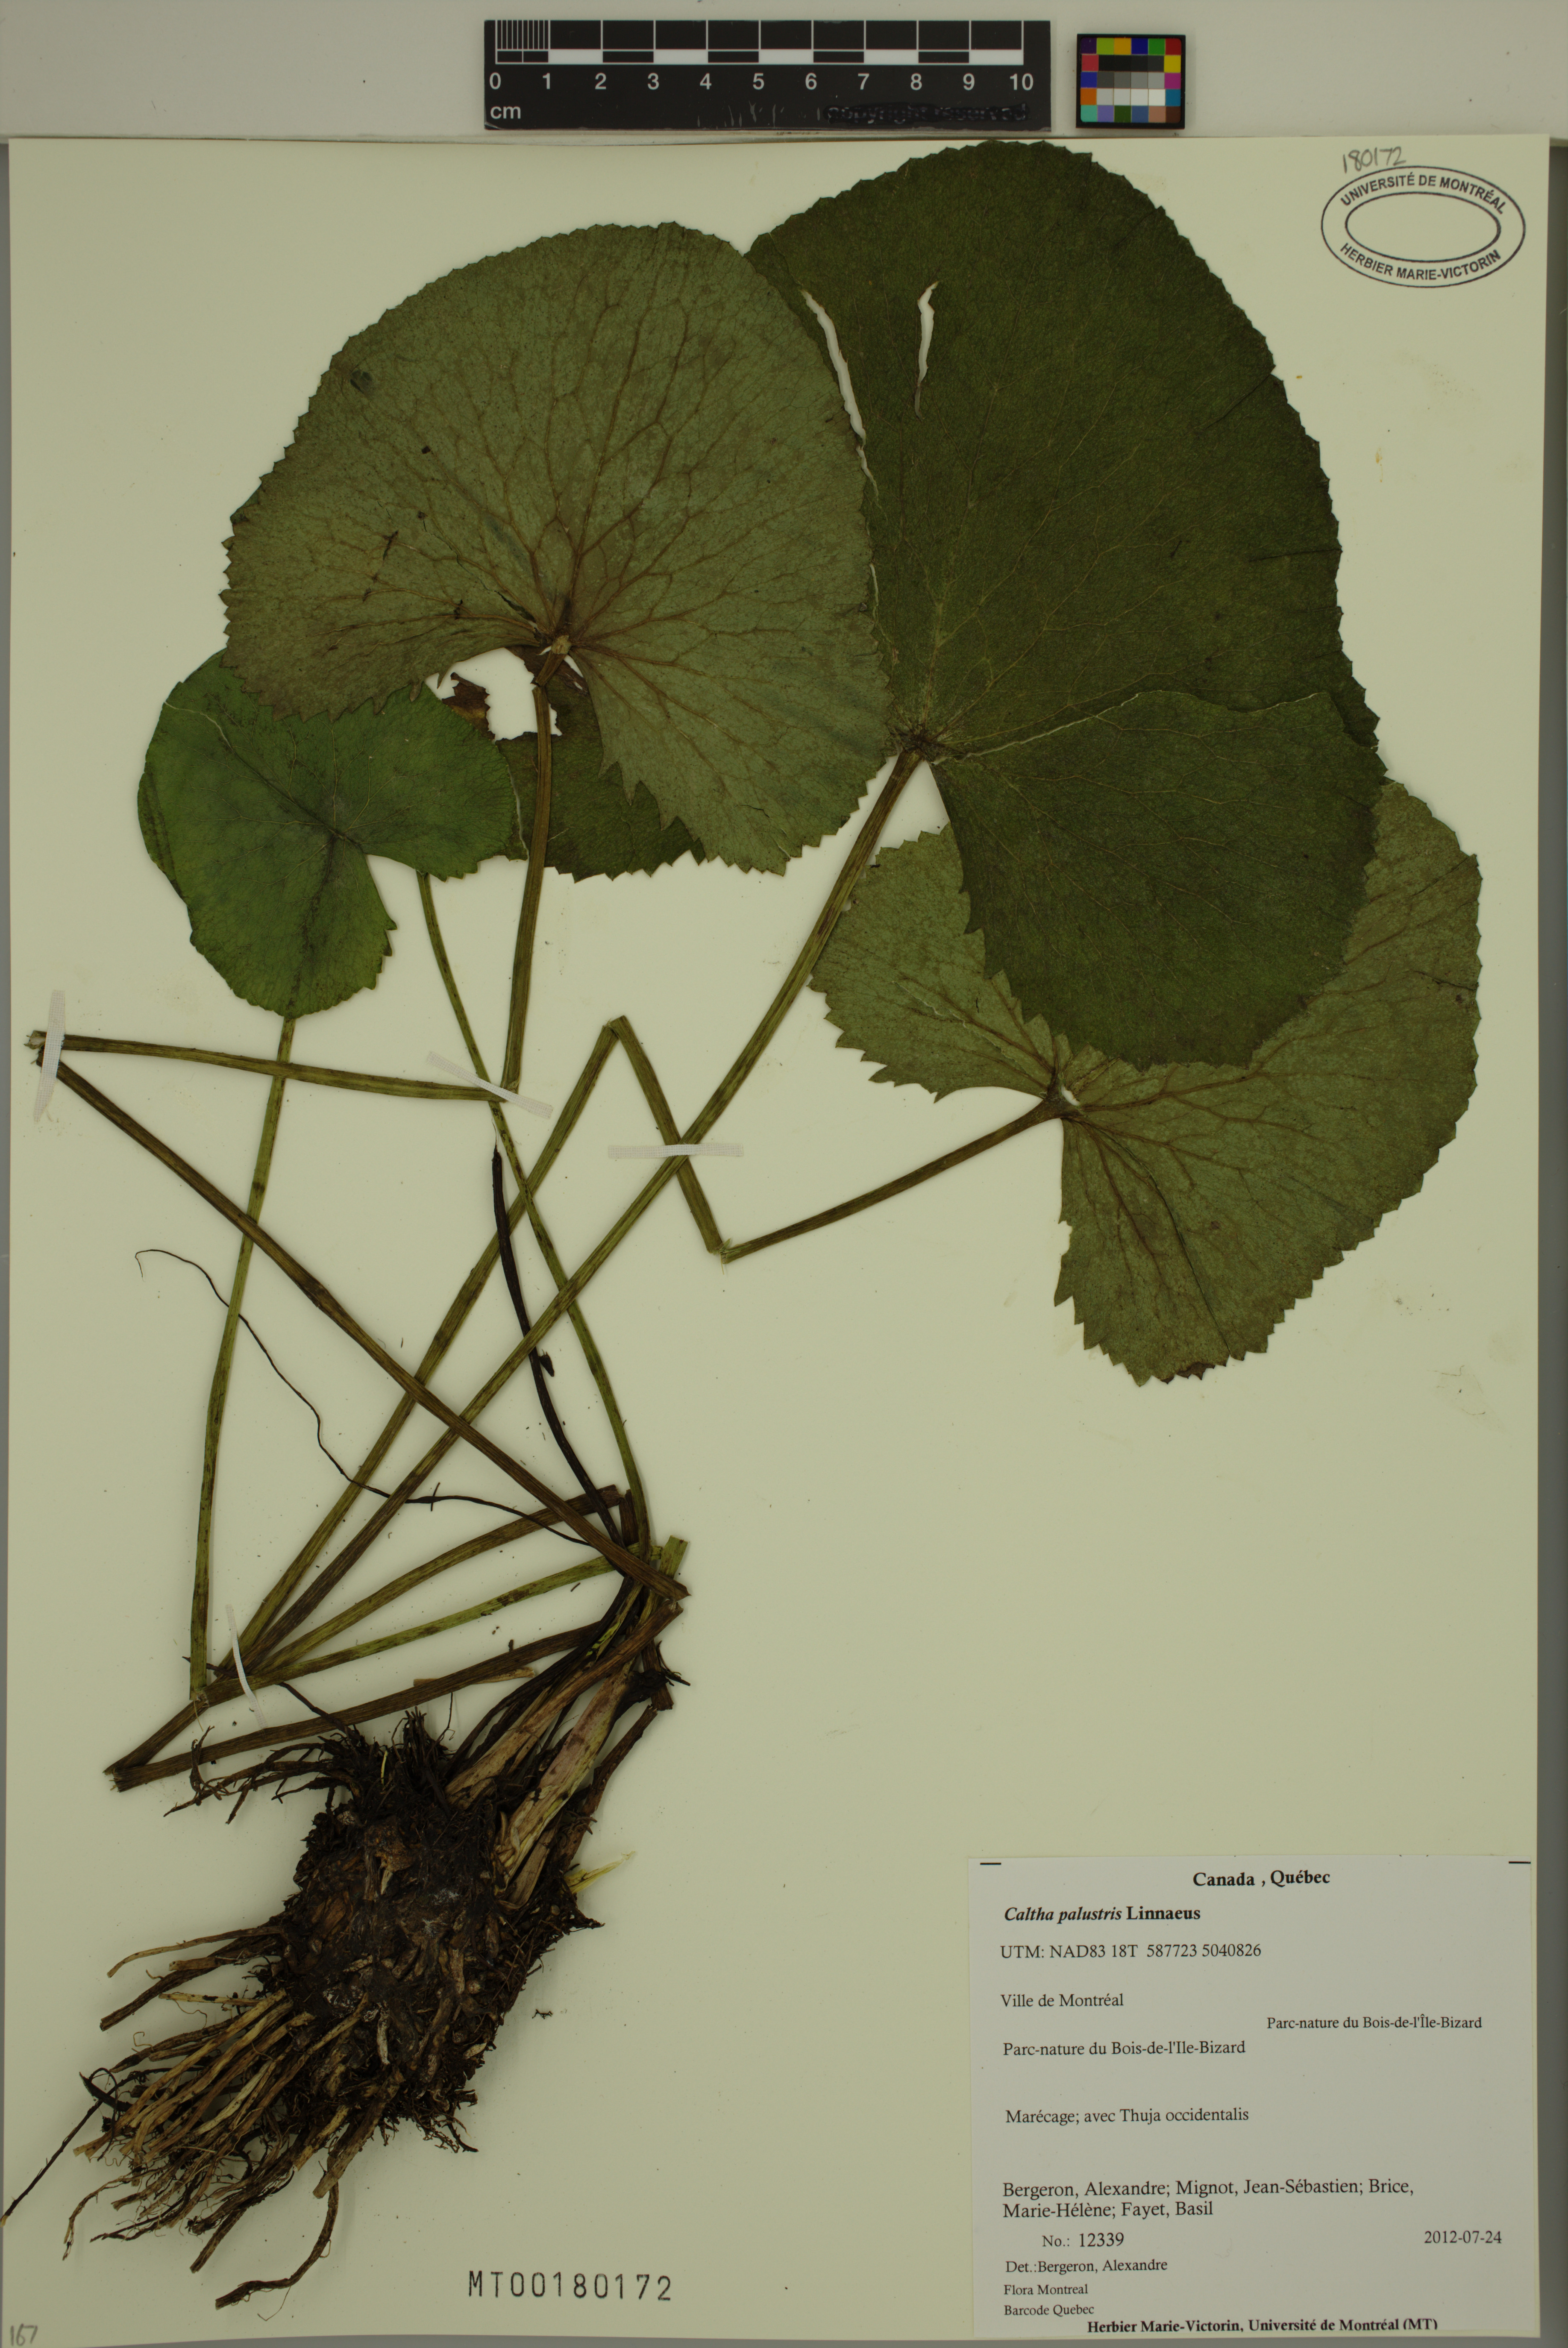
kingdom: Plantae
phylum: Tracheophyta
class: Magnoliopsida
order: Ranunculales
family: Ranunculaceae
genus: Caltha
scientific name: Caltha palustris
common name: Marsh marigold
